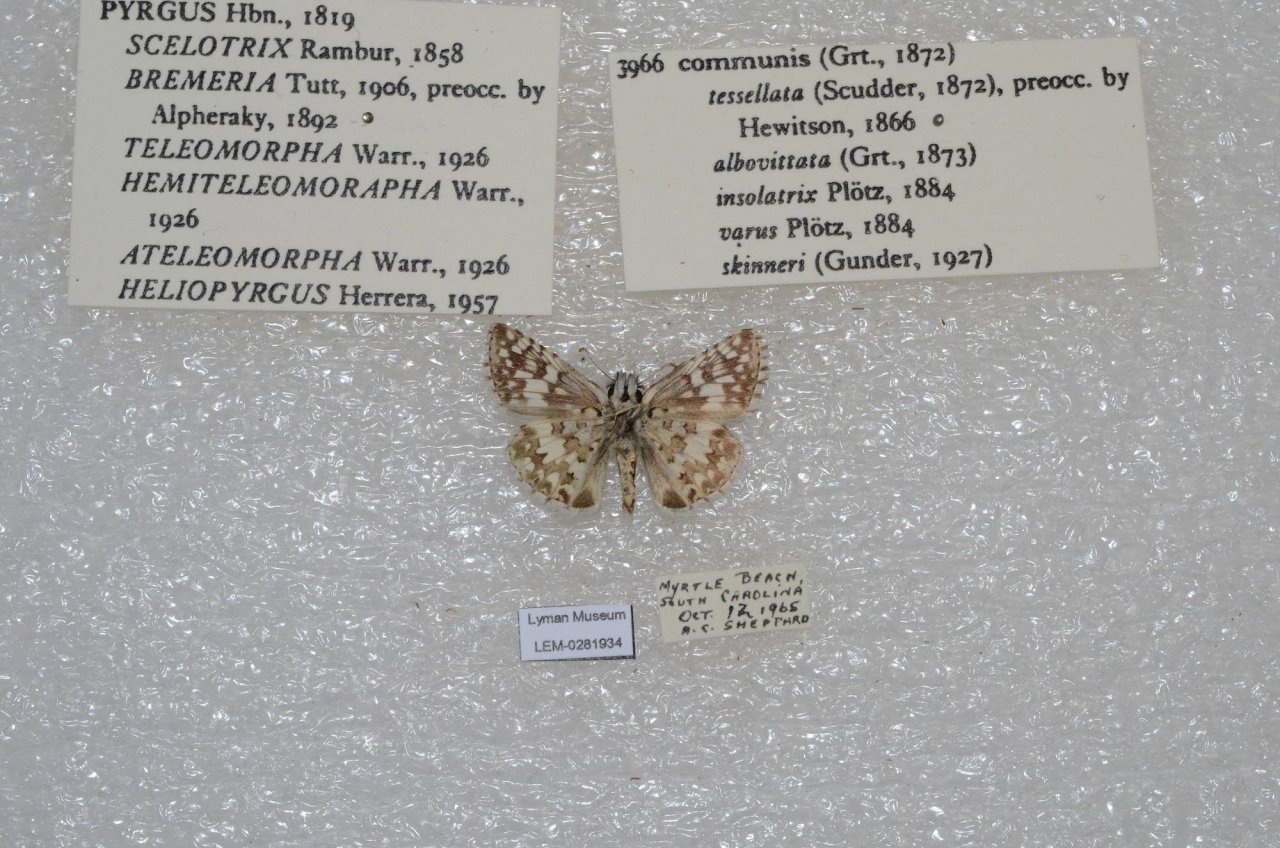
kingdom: Animalia
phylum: Arthropoda
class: Insecta
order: Lepidoptera
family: Hesperiidae
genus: Pyrgus
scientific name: Pyrgus communis
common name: Common Checkered-Skipper
